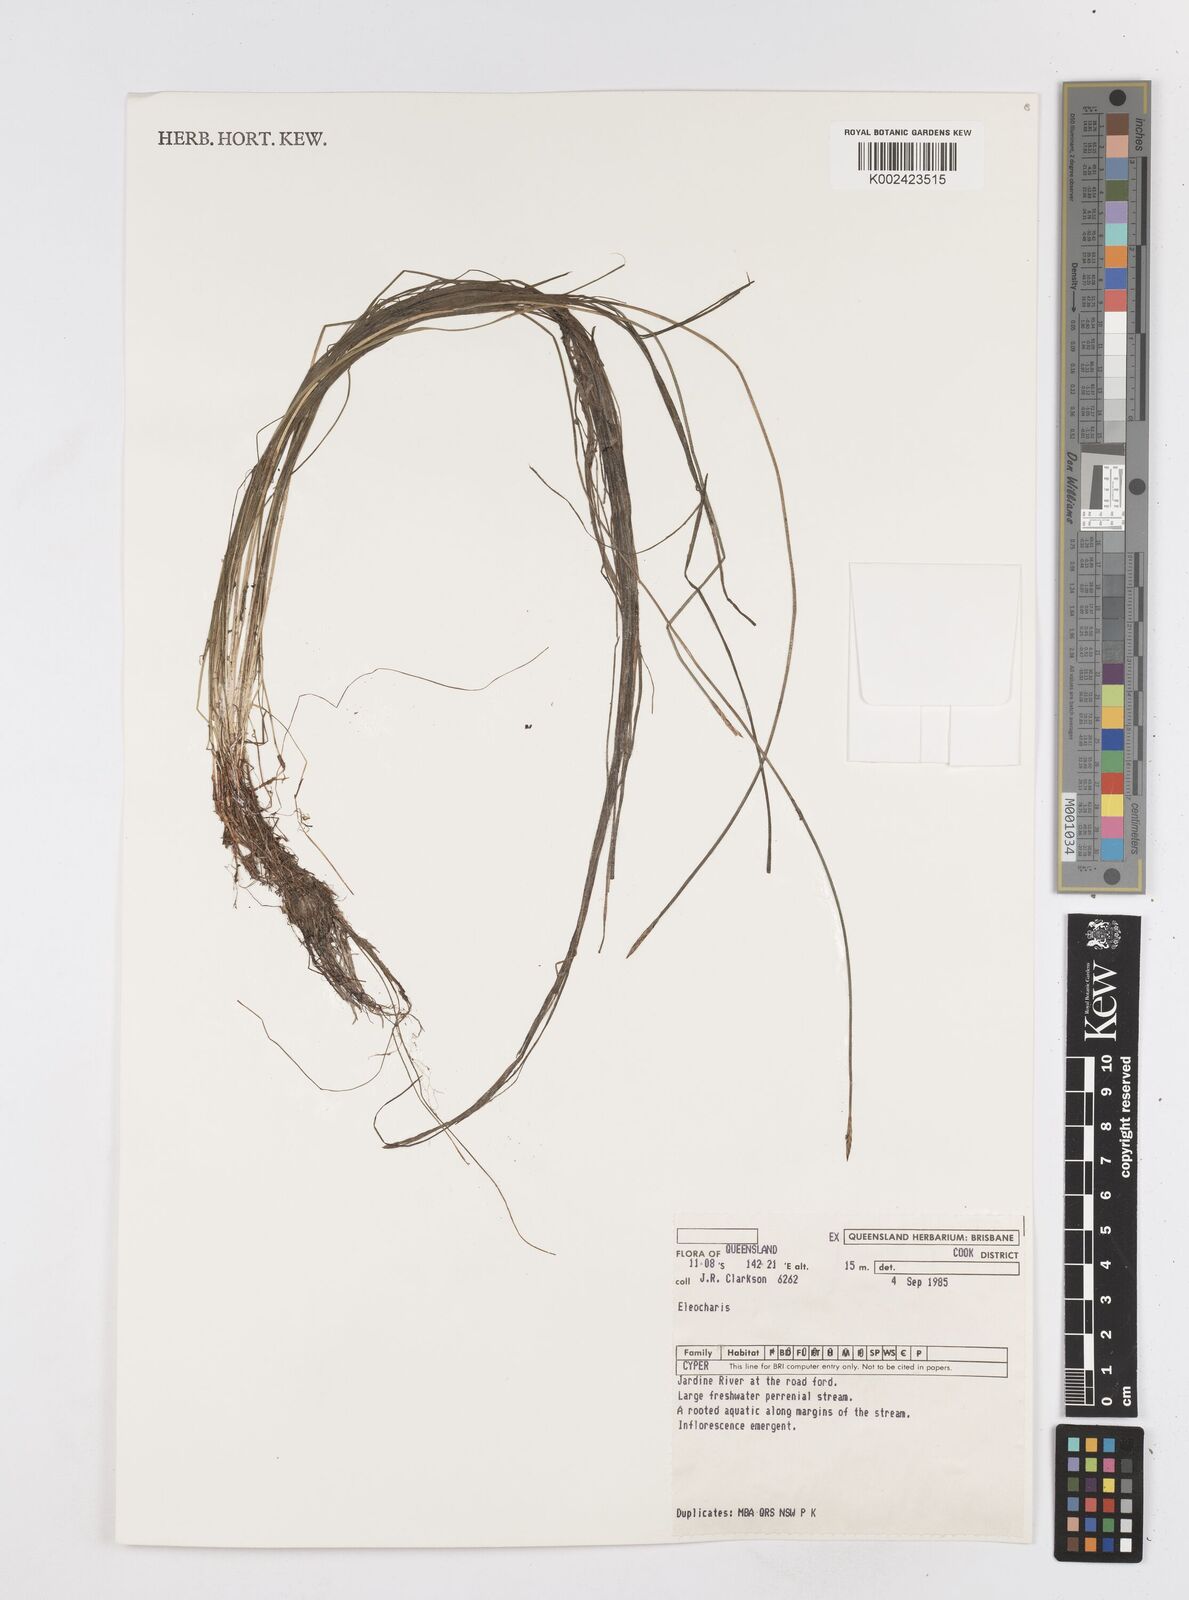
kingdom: Plantae
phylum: Tracheophyta
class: Liliopsida
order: Poales
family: Cyperaceae
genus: Eleocharis
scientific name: Eleocharis
